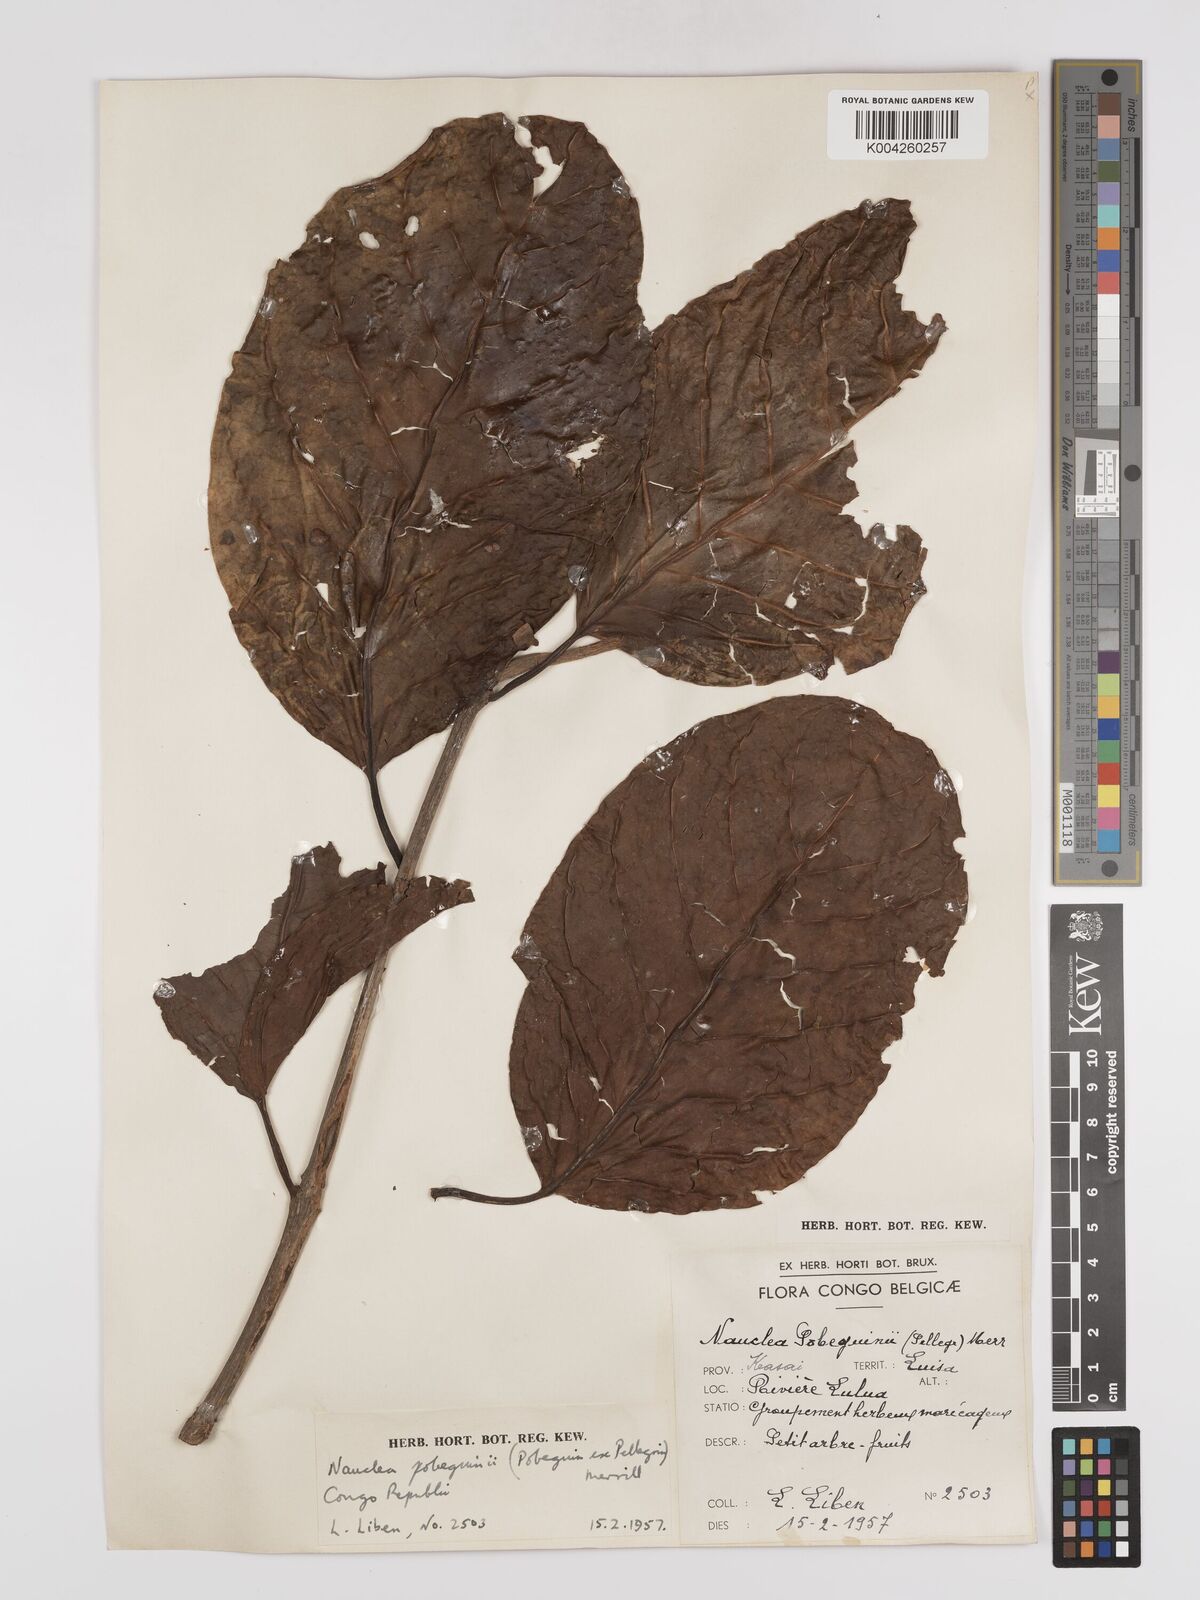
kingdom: Plantae
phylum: Tracheophyta
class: Magnoliopsida
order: Gentianales
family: Rubiaceae
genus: Nauclea
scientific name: Nauclea pobeguinii
